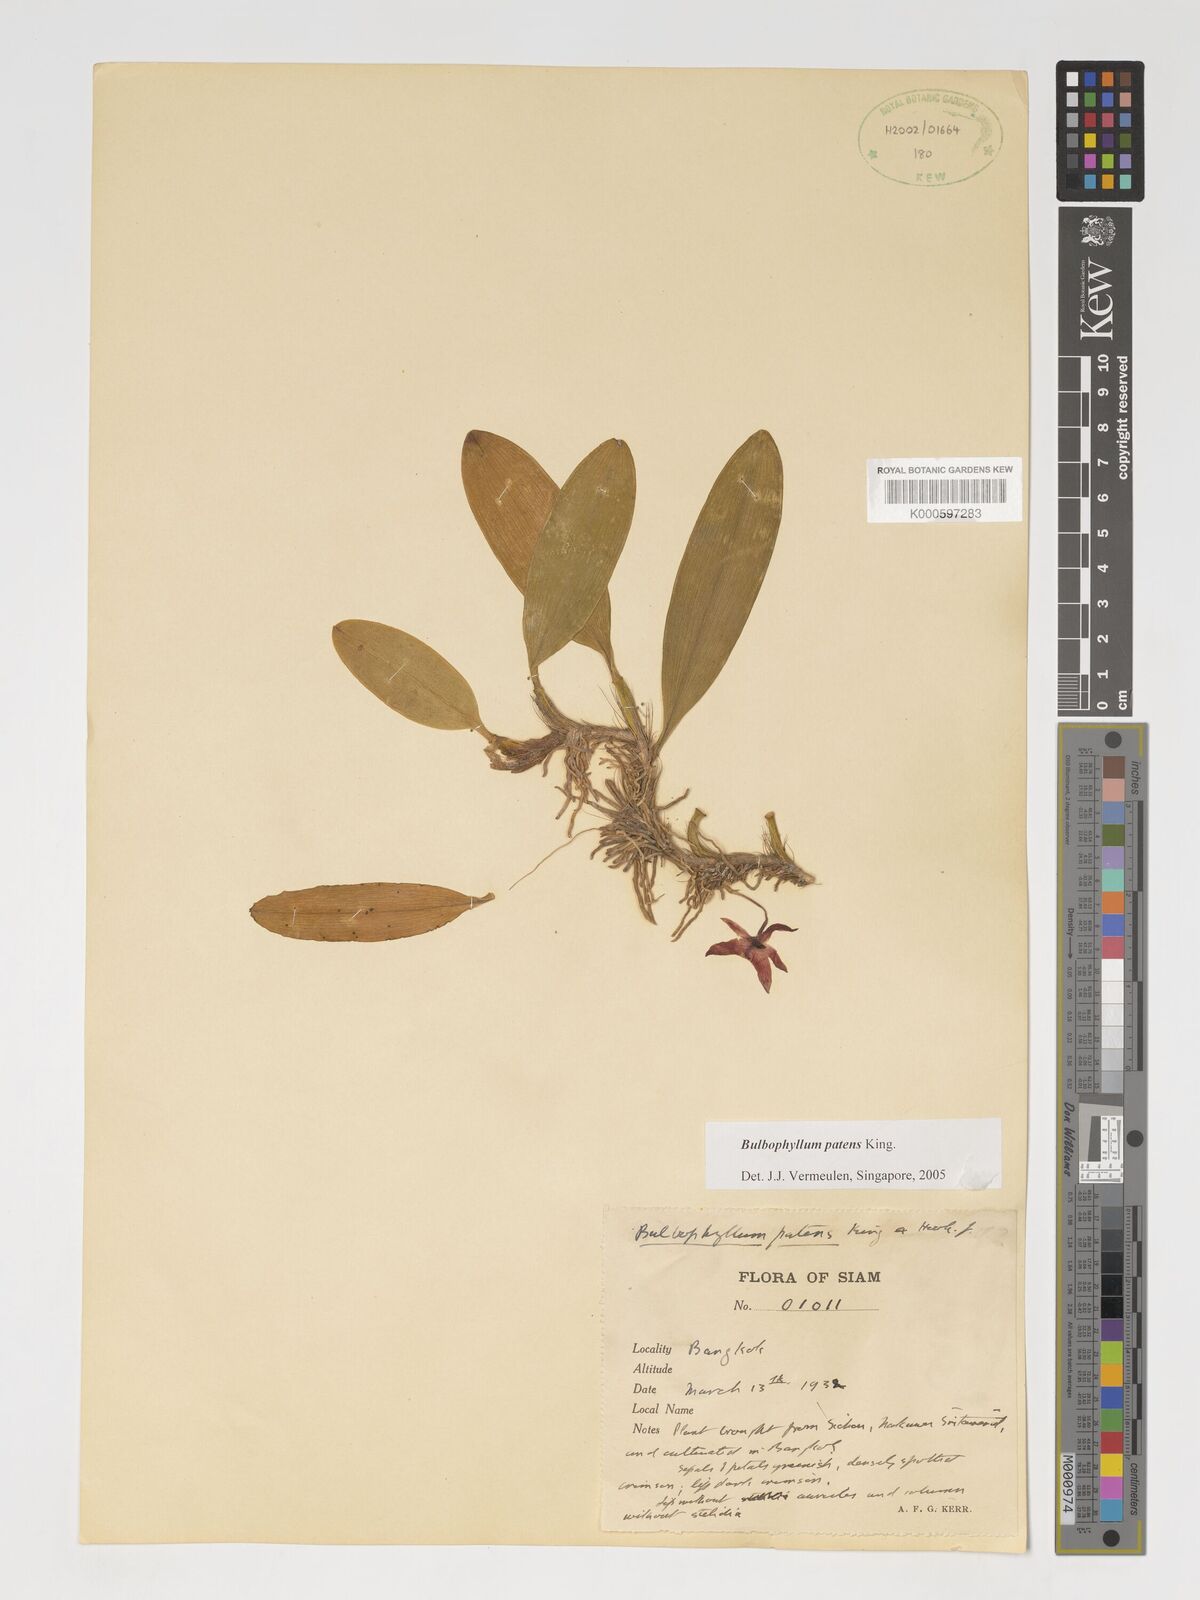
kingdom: Plantae
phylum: Tracheophyta
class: Liliopsida
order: Asparagales
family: Orchidaceae
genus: Bulbophyllum
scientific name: Bulbophyllum
